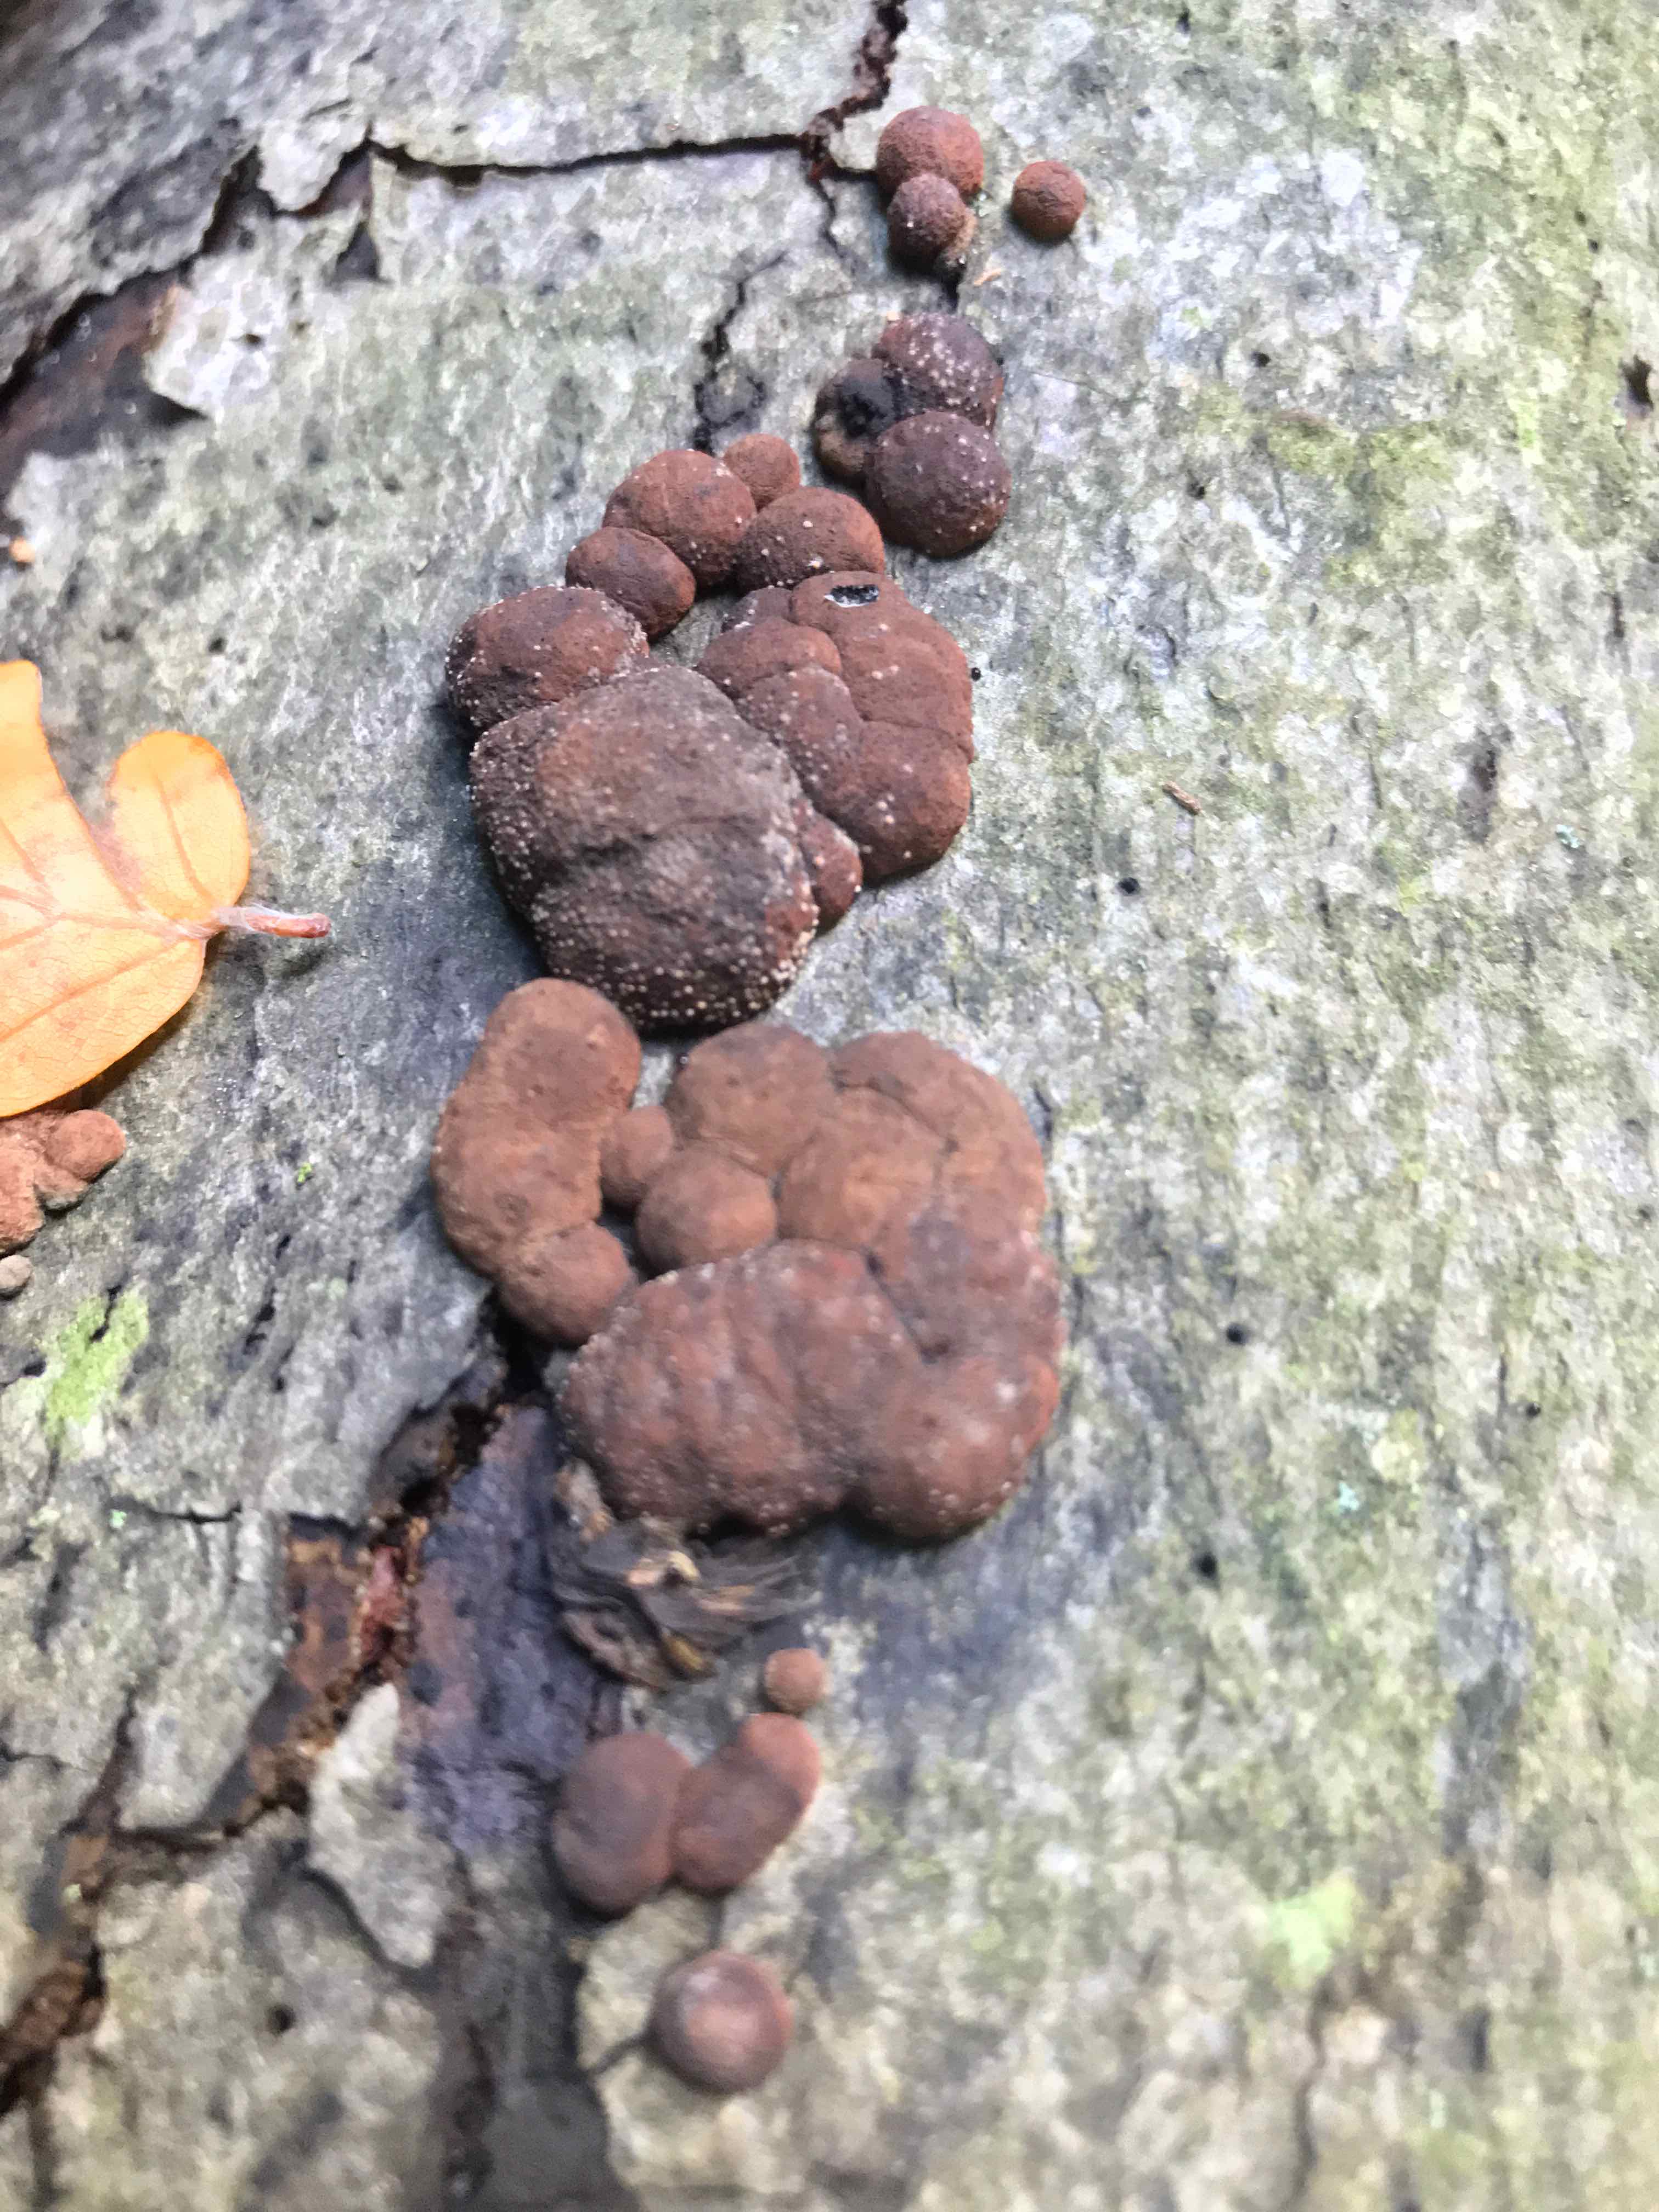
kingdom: Fungi
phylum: Ascomycota
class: Sordariomycetes
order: Xylariales
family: Hypoxylaceae
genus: Hypoxylon
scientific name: Hypoxylon fragiforme
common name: kuljordbær
